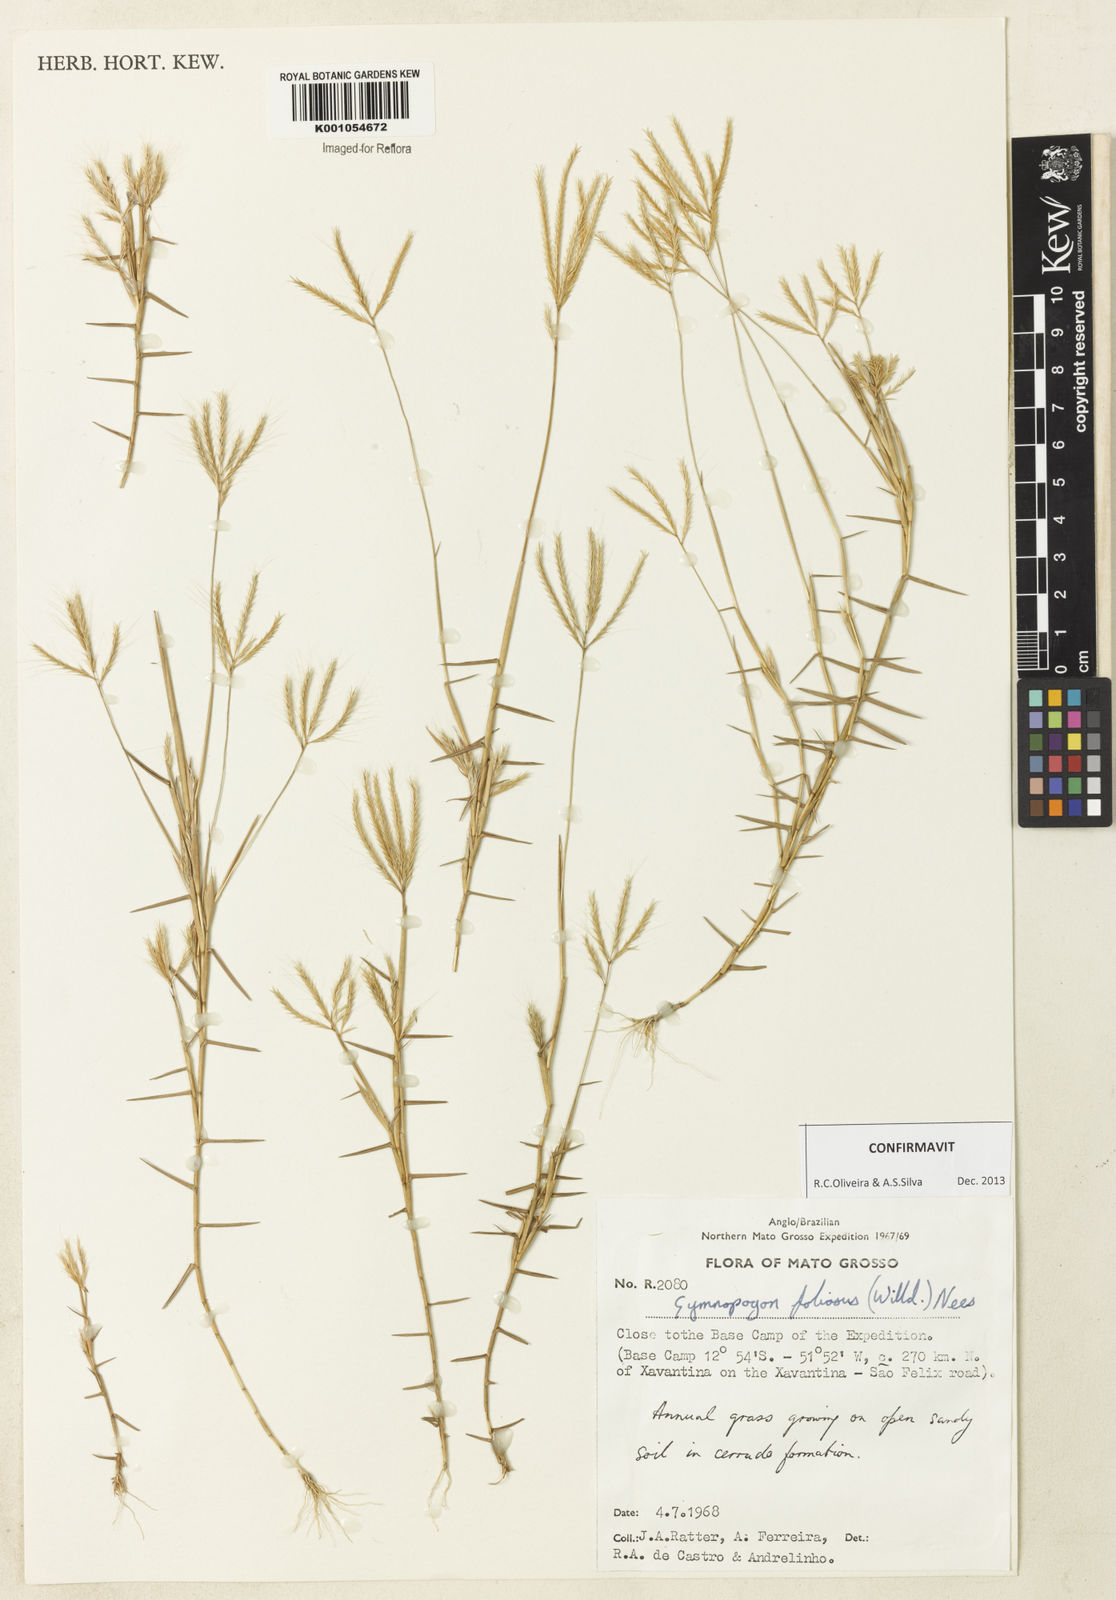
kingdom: Plantae
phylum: Tracheophyta
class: Liliopsida
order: Poales
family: Poaceae
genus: Gymnopogon
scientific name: Gymnopogon foliosus
